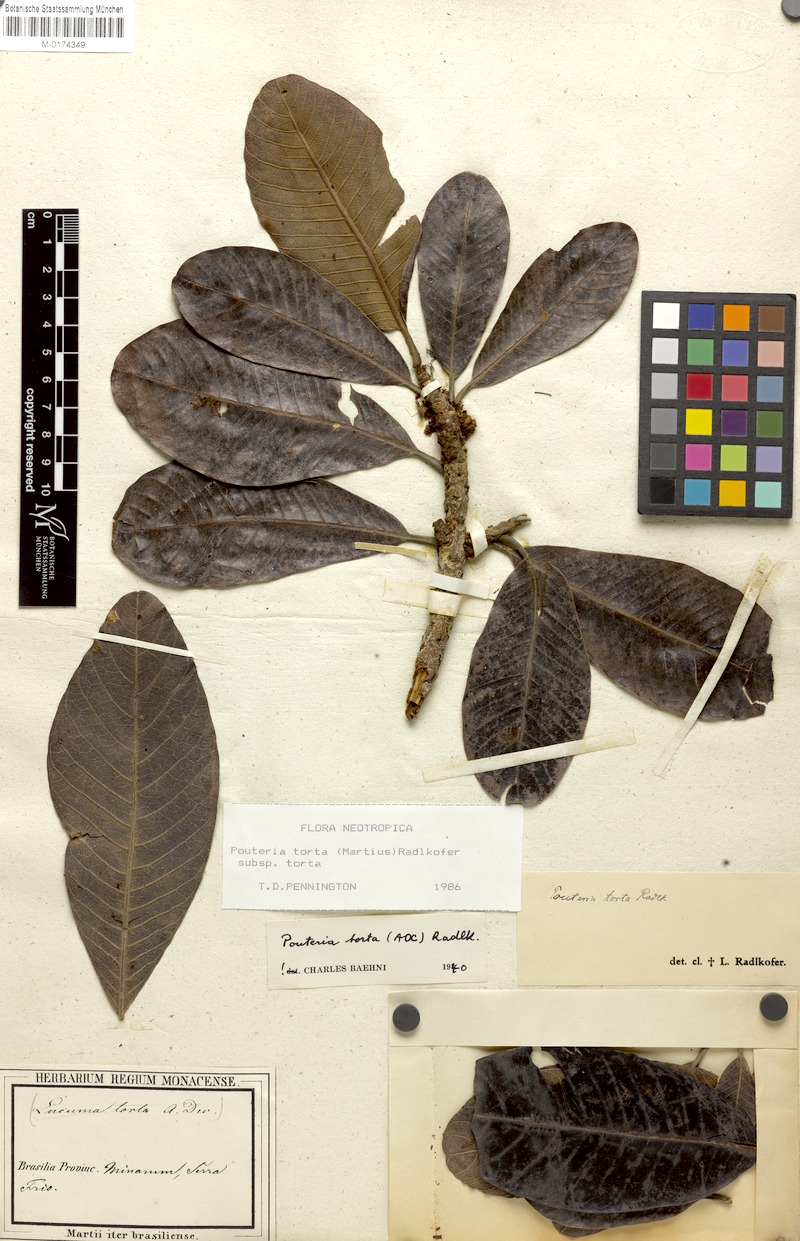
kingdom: Plantae
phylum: Tracheophyta
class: Magnoliopsida
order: Ericales
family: Sapotaceae
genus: Pouteria
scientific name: Pouteria torta
